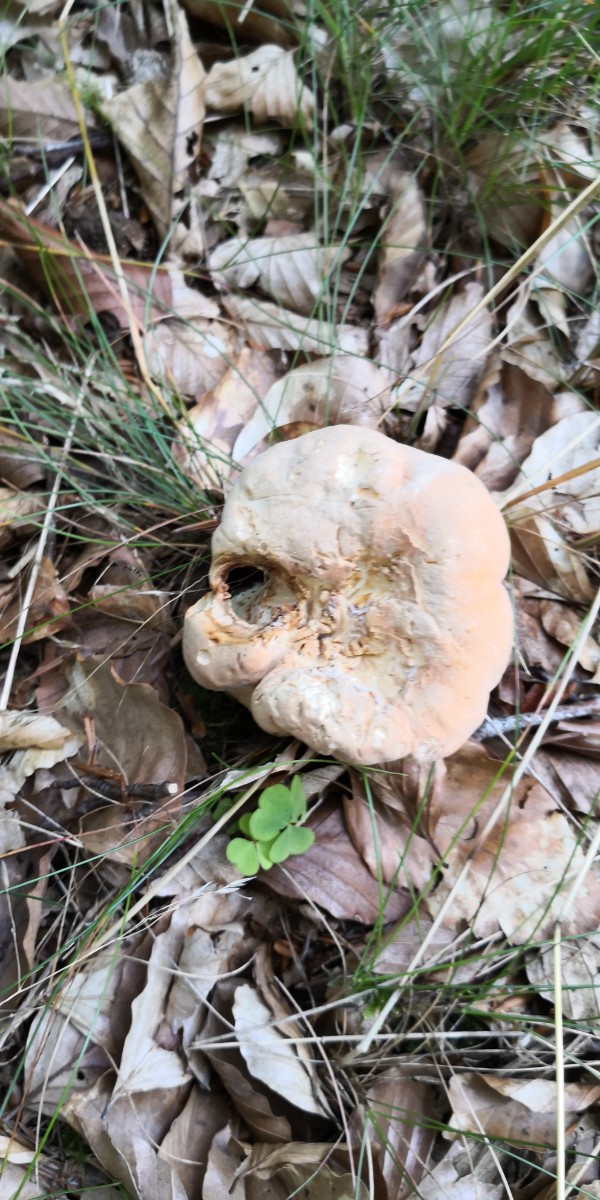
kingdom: Fungi
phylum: Basidiomycota
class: Agaricomycetes
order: Cantharellales
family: Hydnaceae
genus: Hydnum
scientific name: Hydnum
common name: pigsvamp
